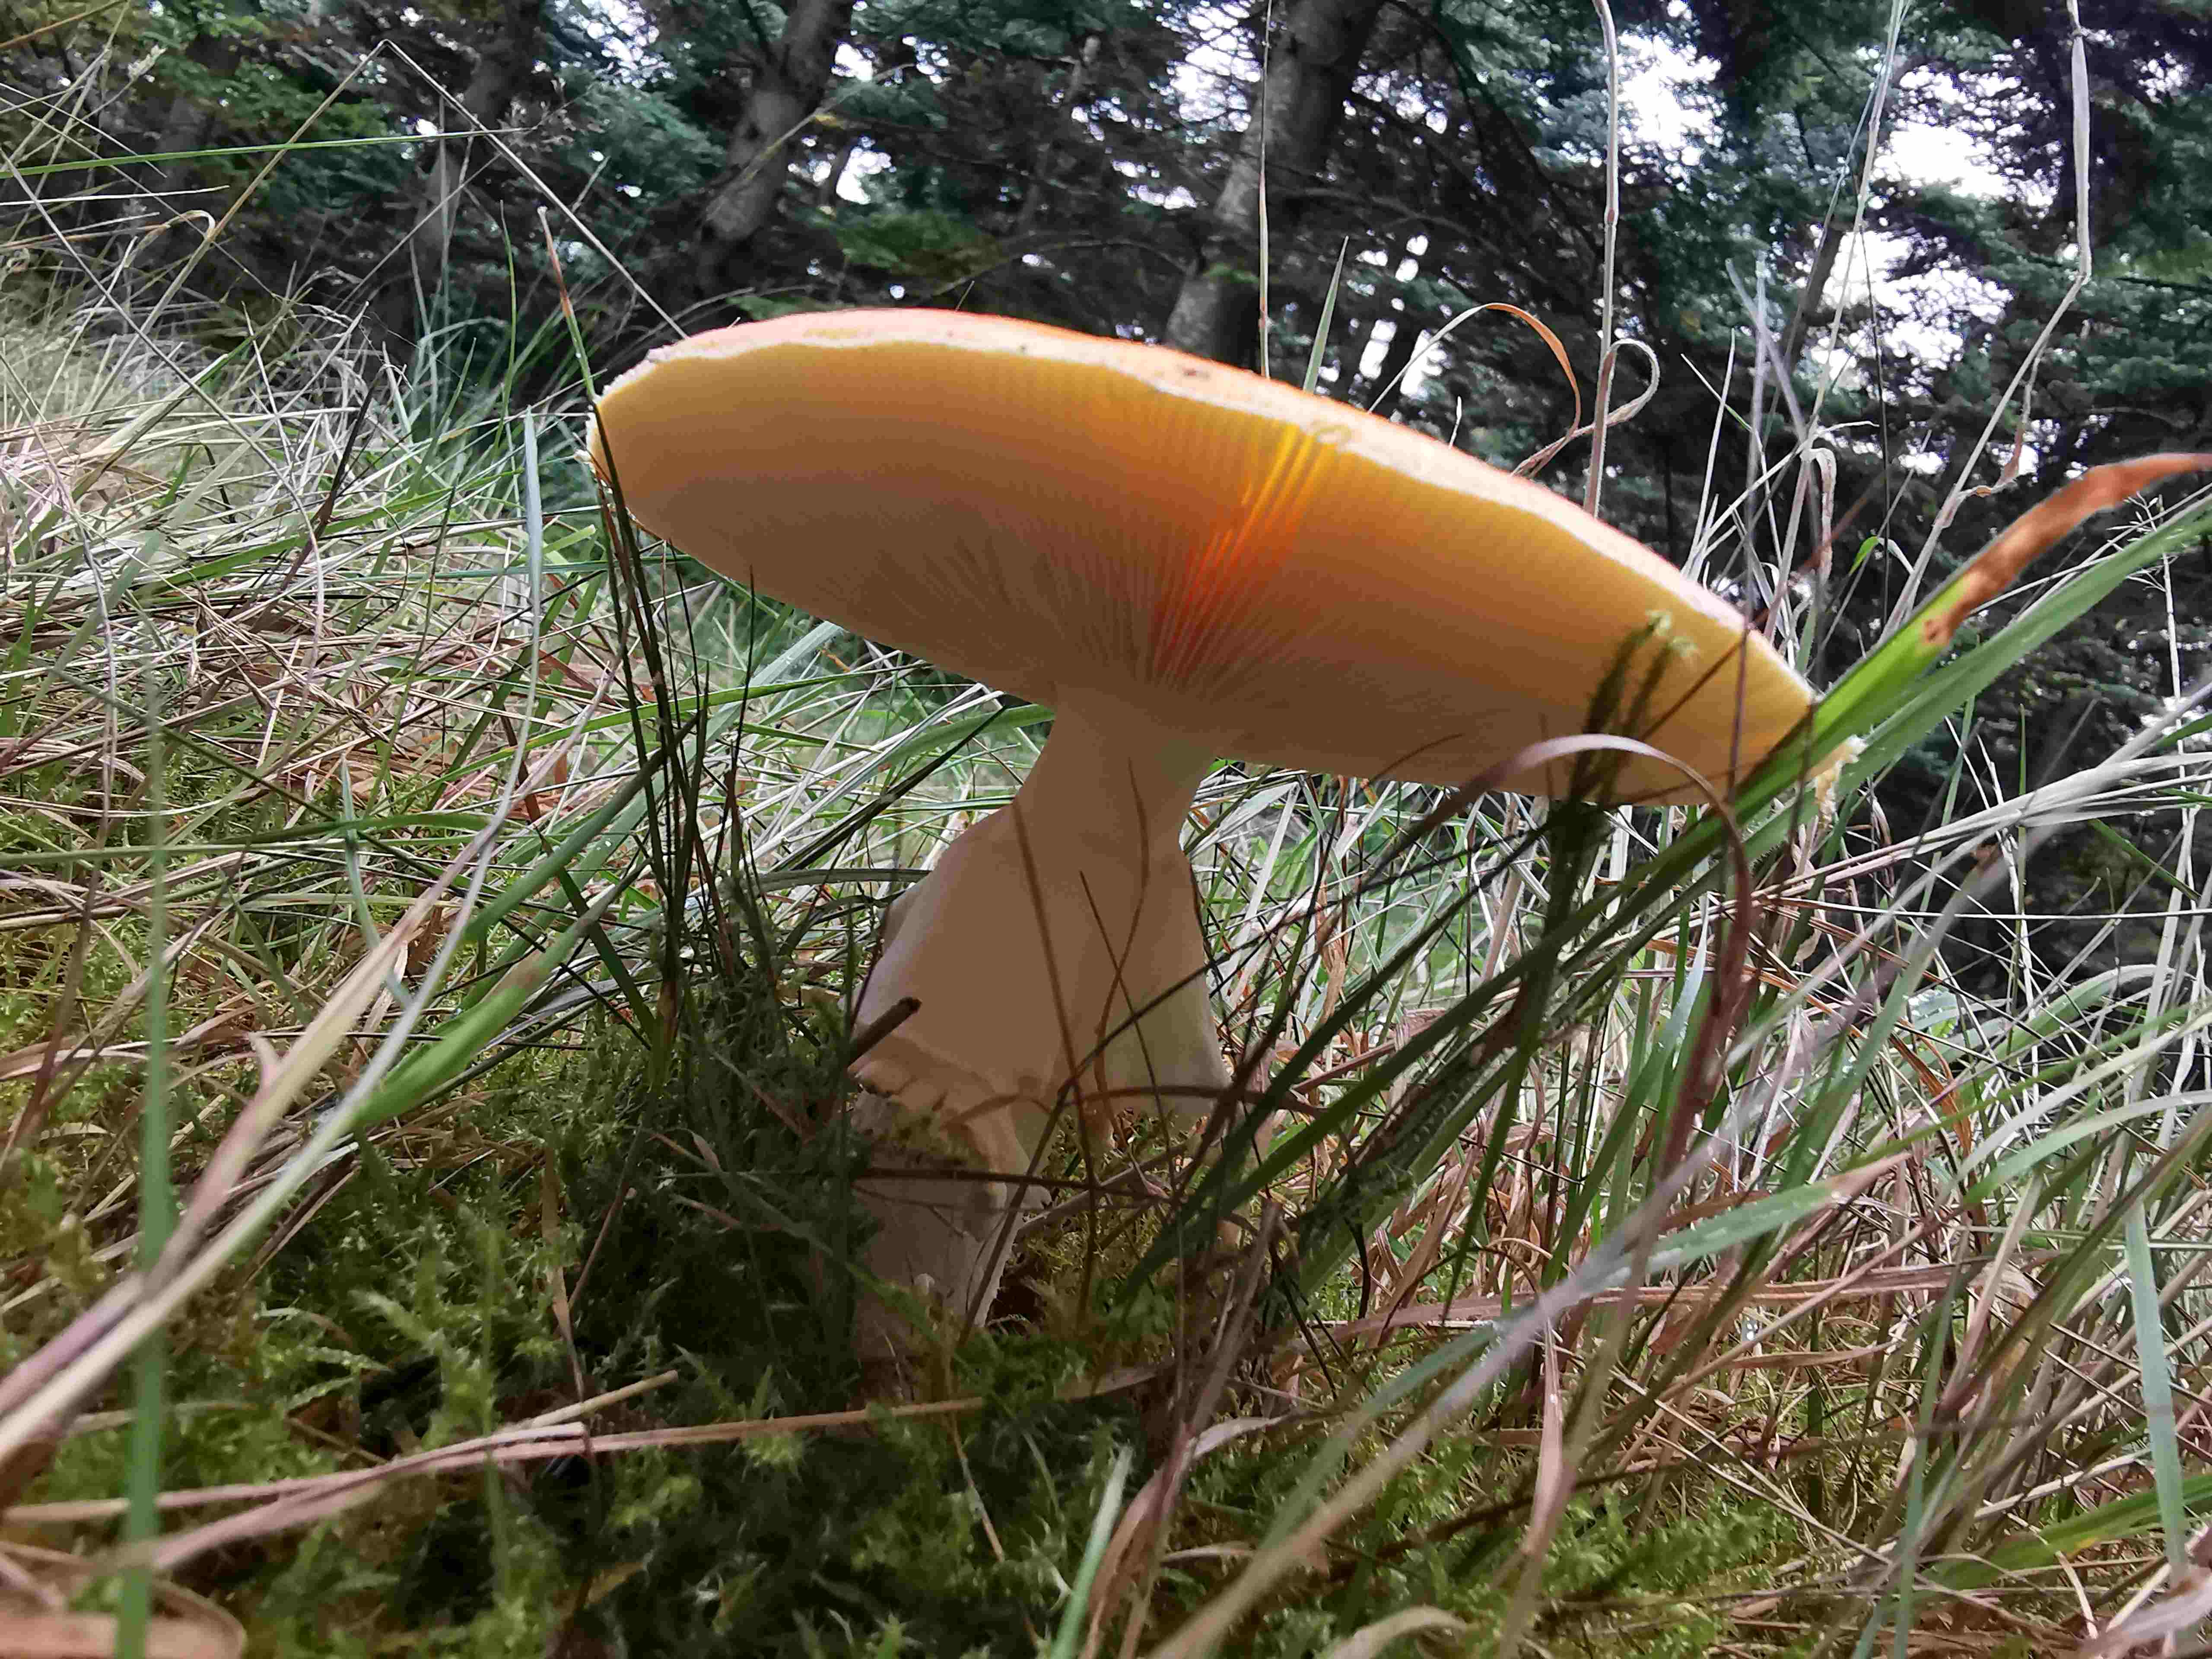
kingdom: Fungi
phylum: Basidiomycota
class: Agaricomycetes
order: Agaricales
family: Amanitaceae
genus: Amanita
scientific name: Amanita muscaria
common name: rød fluesvamp
